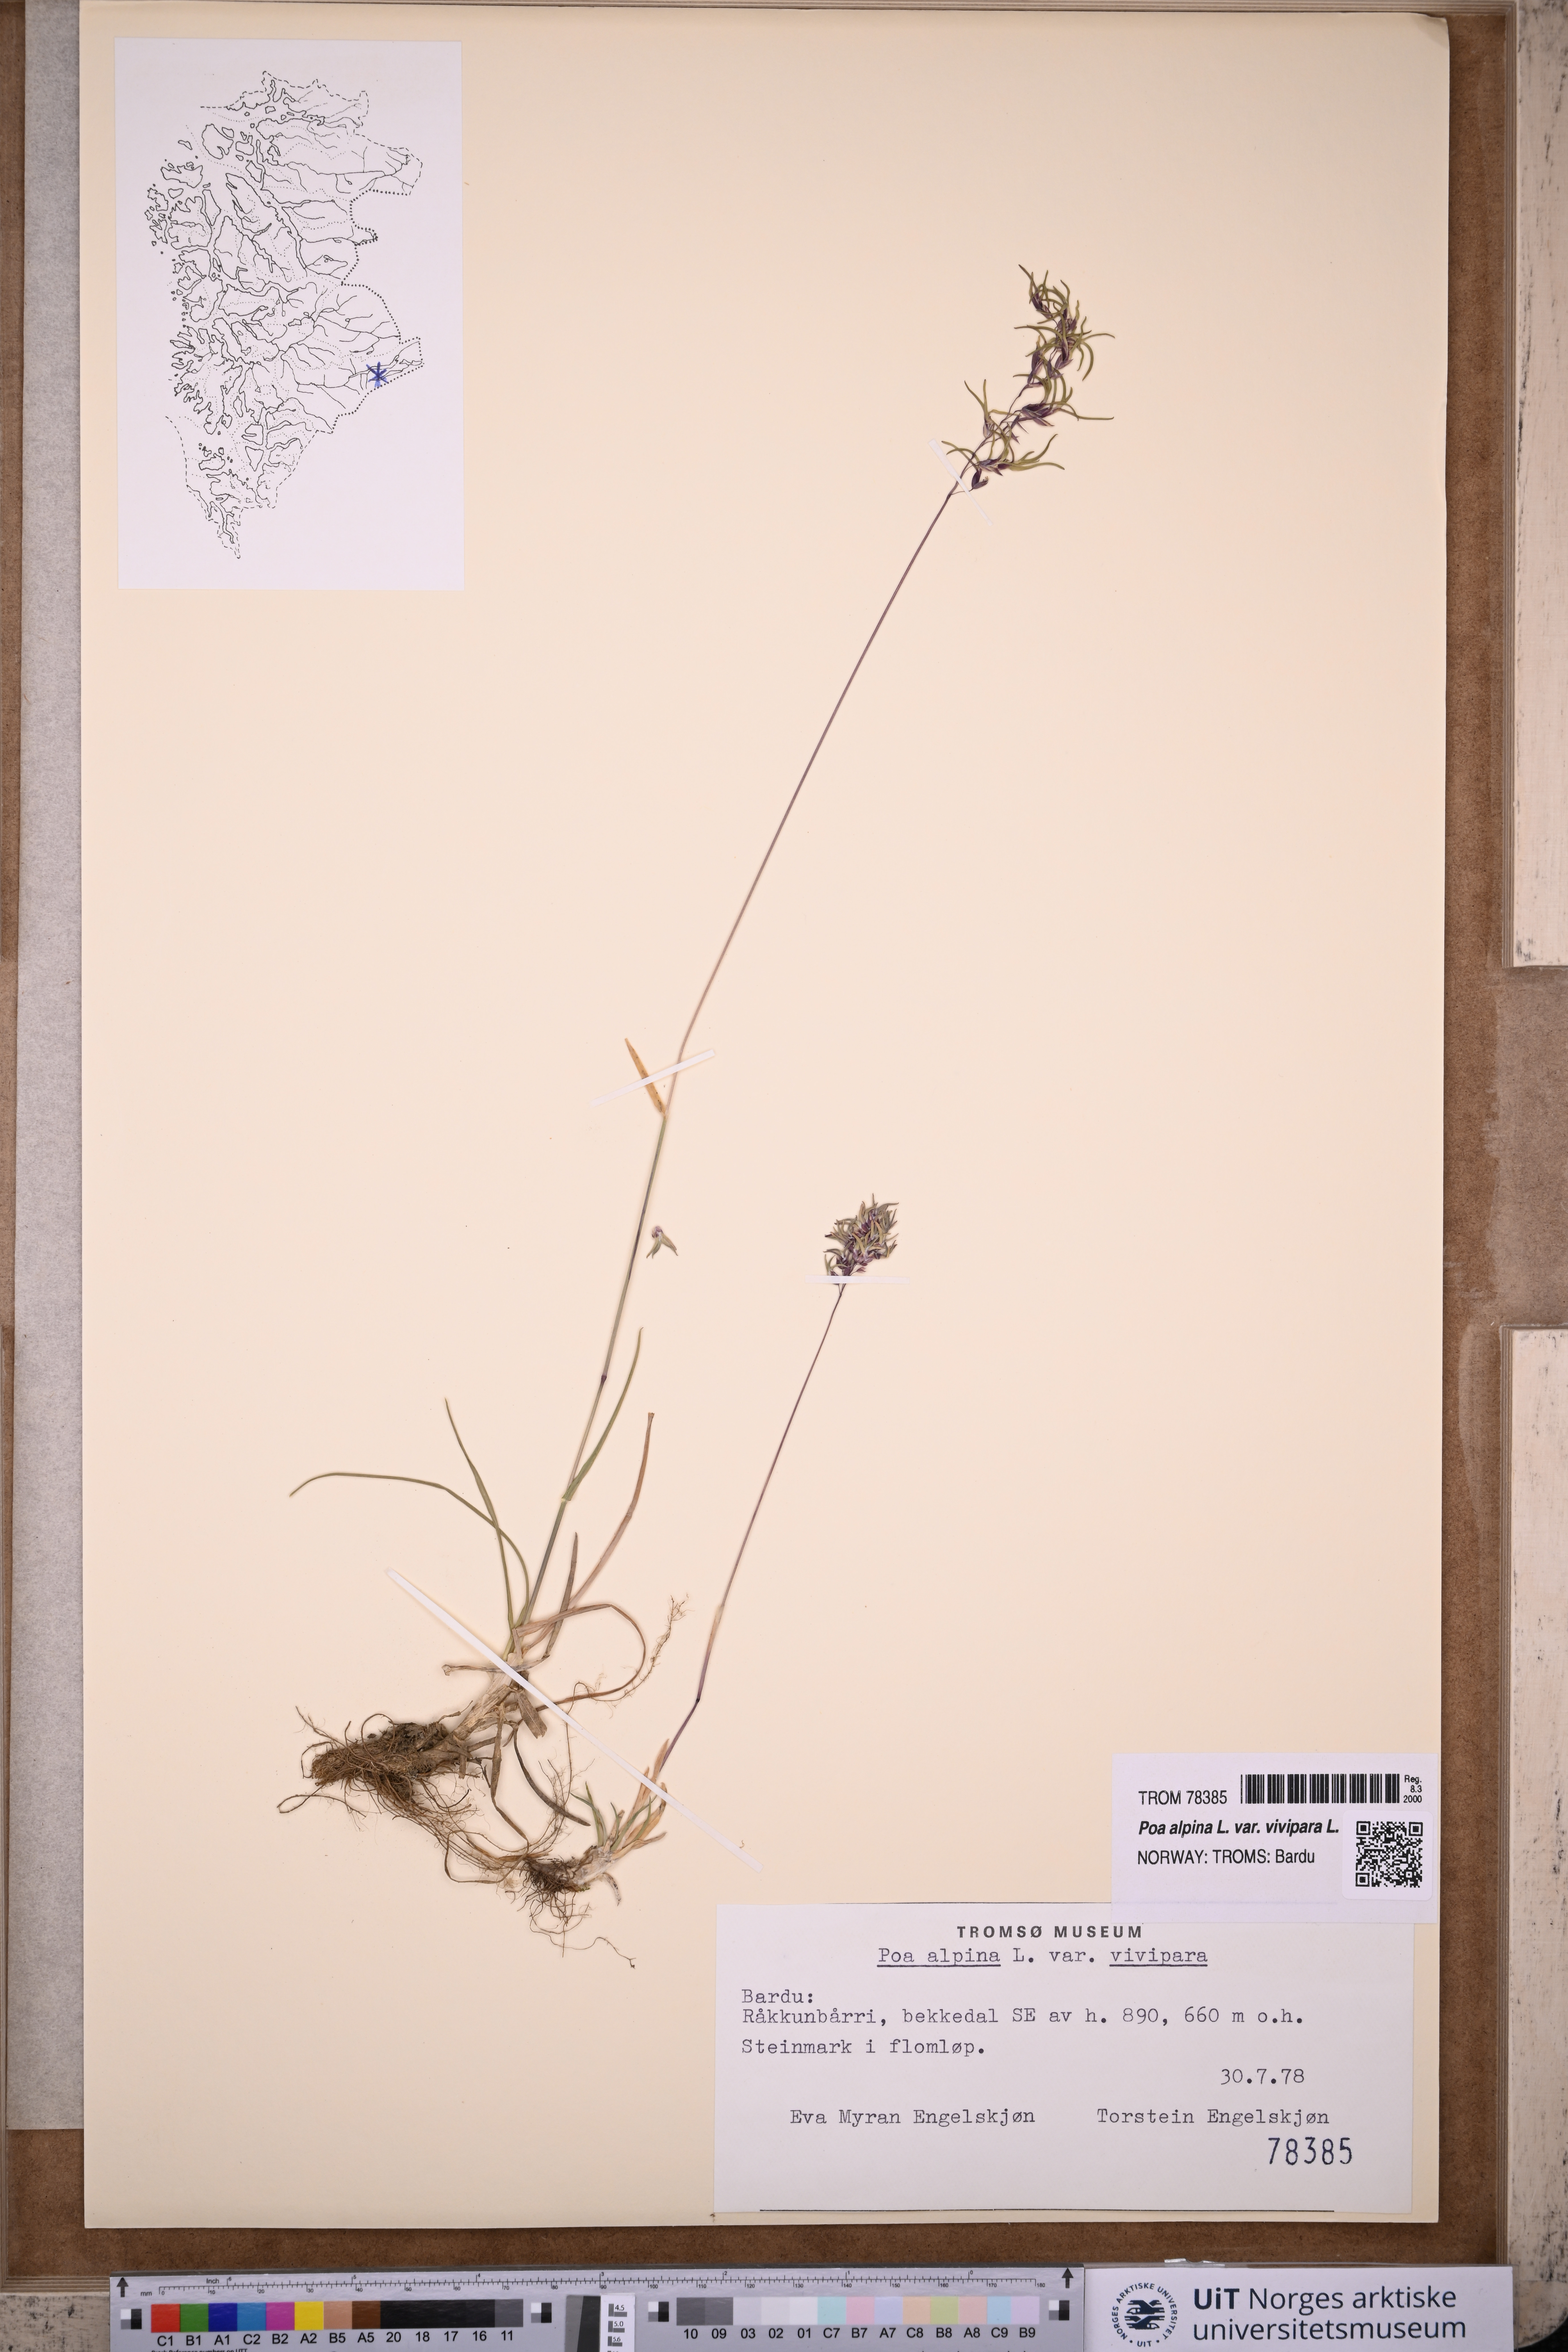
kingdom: Plantae
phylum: Tracheophyta
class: Liliopsida
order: Poales
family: Poaceae
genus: Poa
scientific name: Poa alpina
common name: Alpine bluegrass
